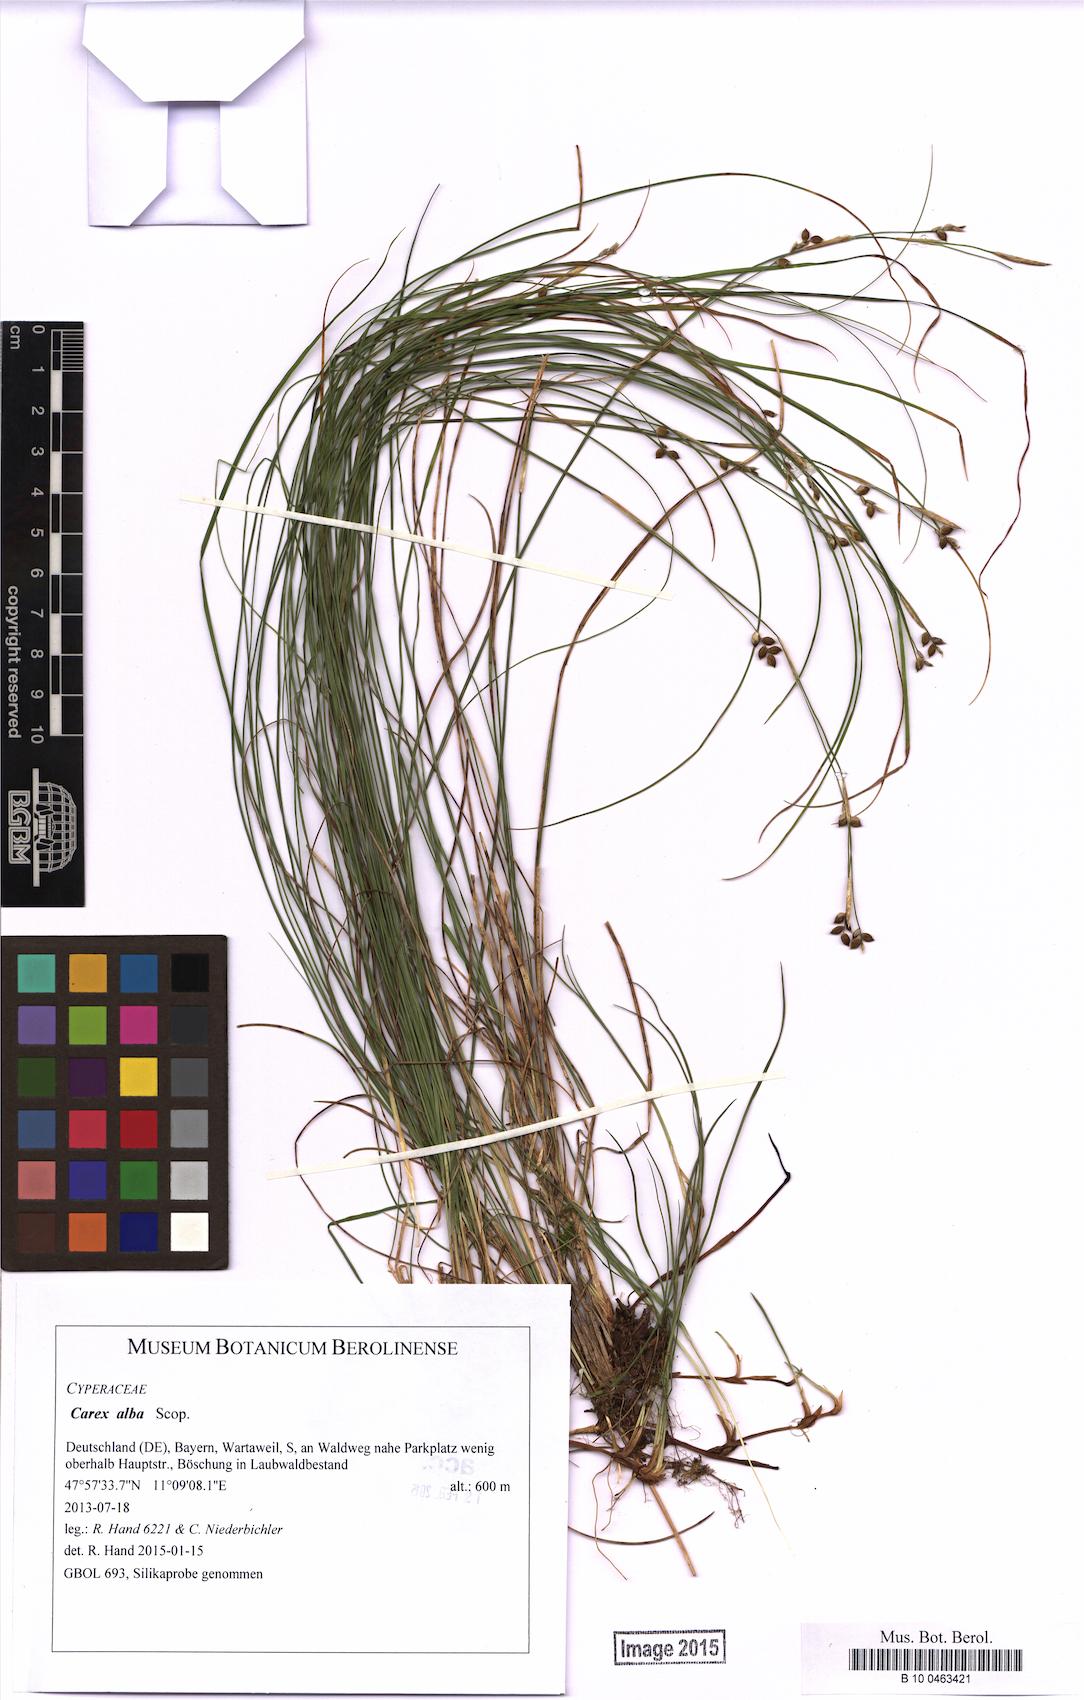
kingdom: Plantae
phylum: Tracheophyta
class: Liliopsida
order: Poales
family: Cyperaceae
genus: Carex
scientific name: Carex alba
